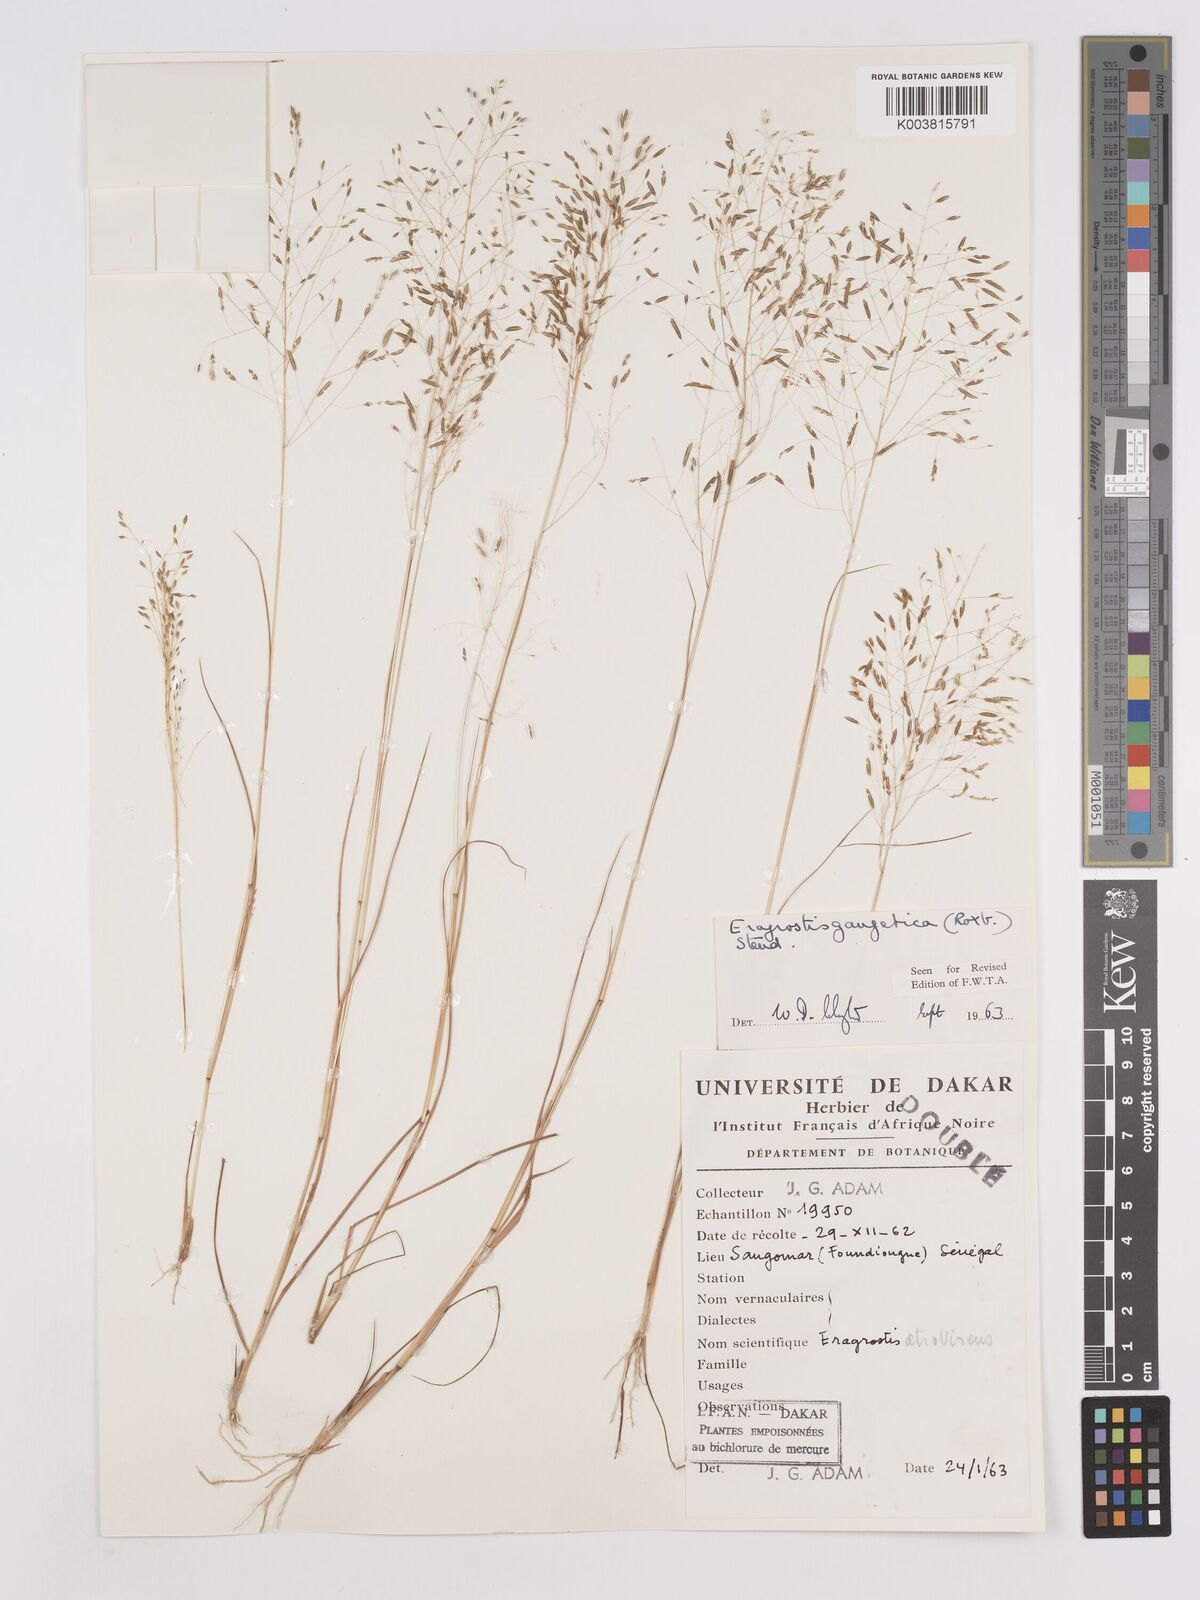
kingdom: Plantae
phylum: Tracheophyta
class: Liliopsida
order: Poales
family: Poaceae
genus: Eragrostis
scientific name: Eragrostis gangetica
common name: Slimflower lovegrass
